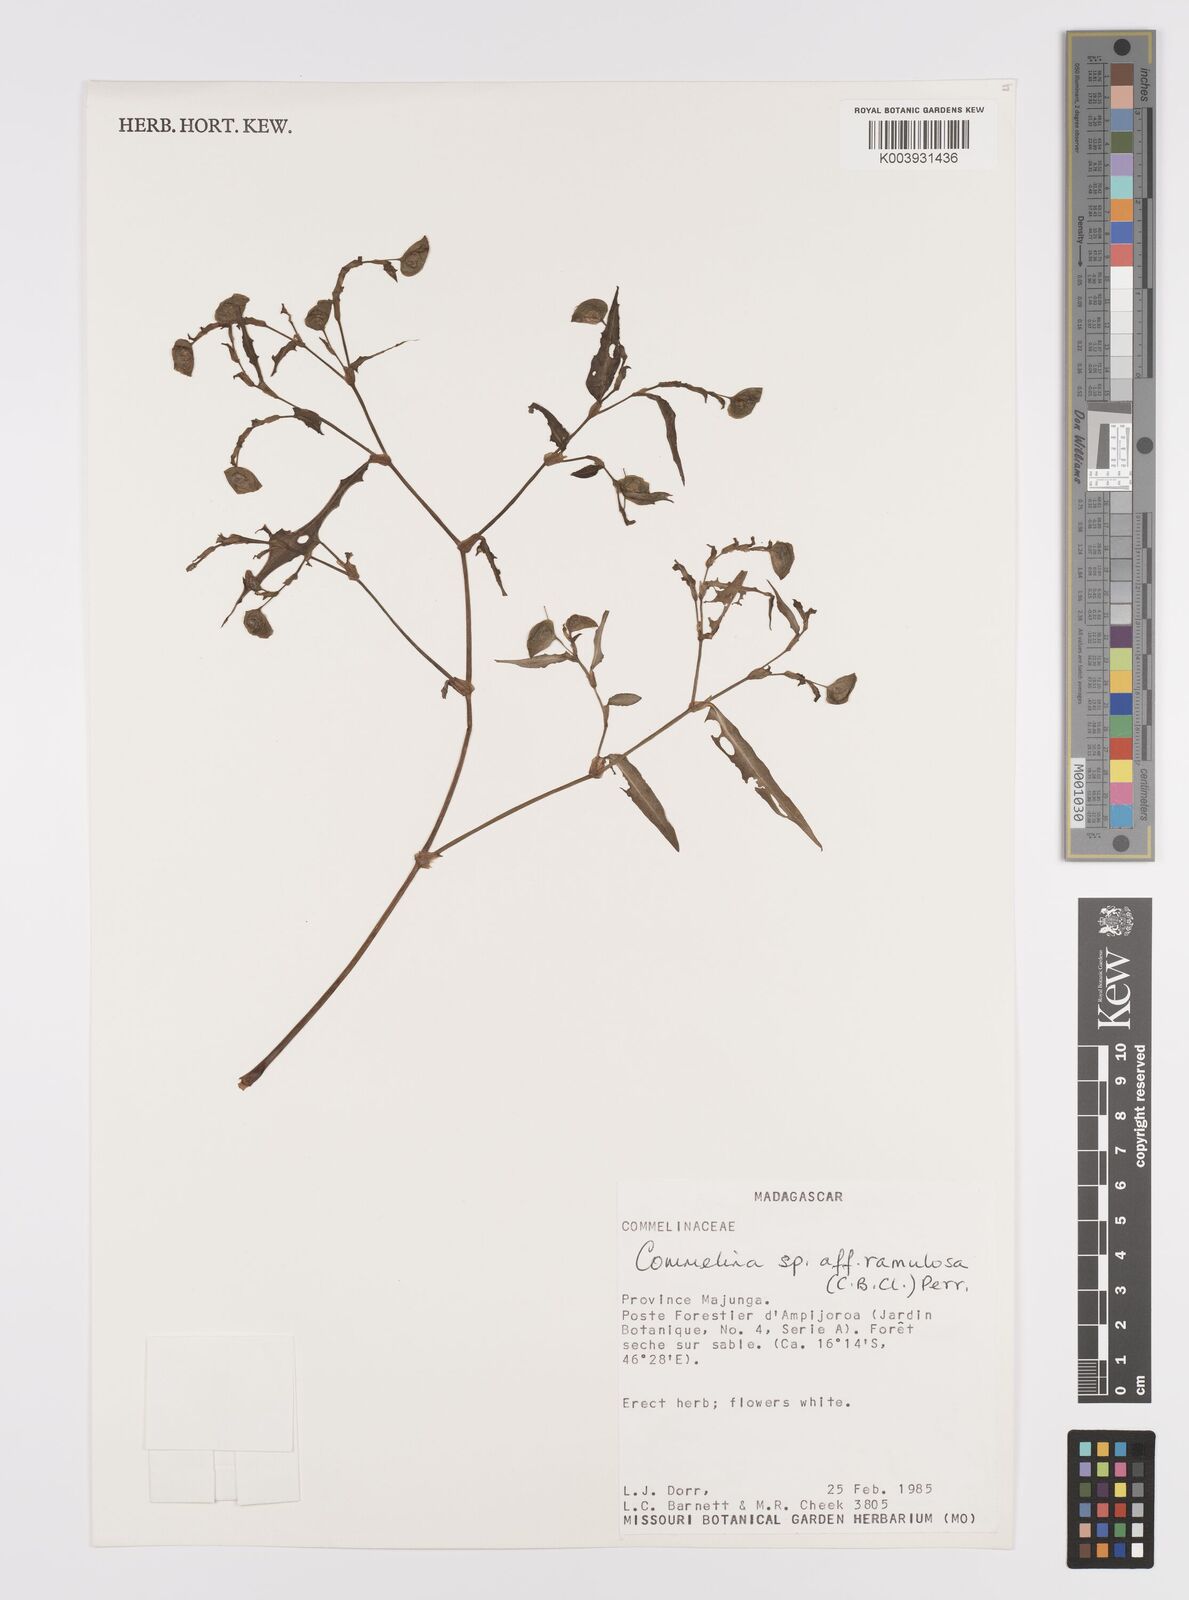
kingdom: Plantae
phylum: Tracheophyta
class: Liliopsida
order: Commelinales
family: Commelinaceae
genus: Commelina
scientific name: Commelina ramulosa
